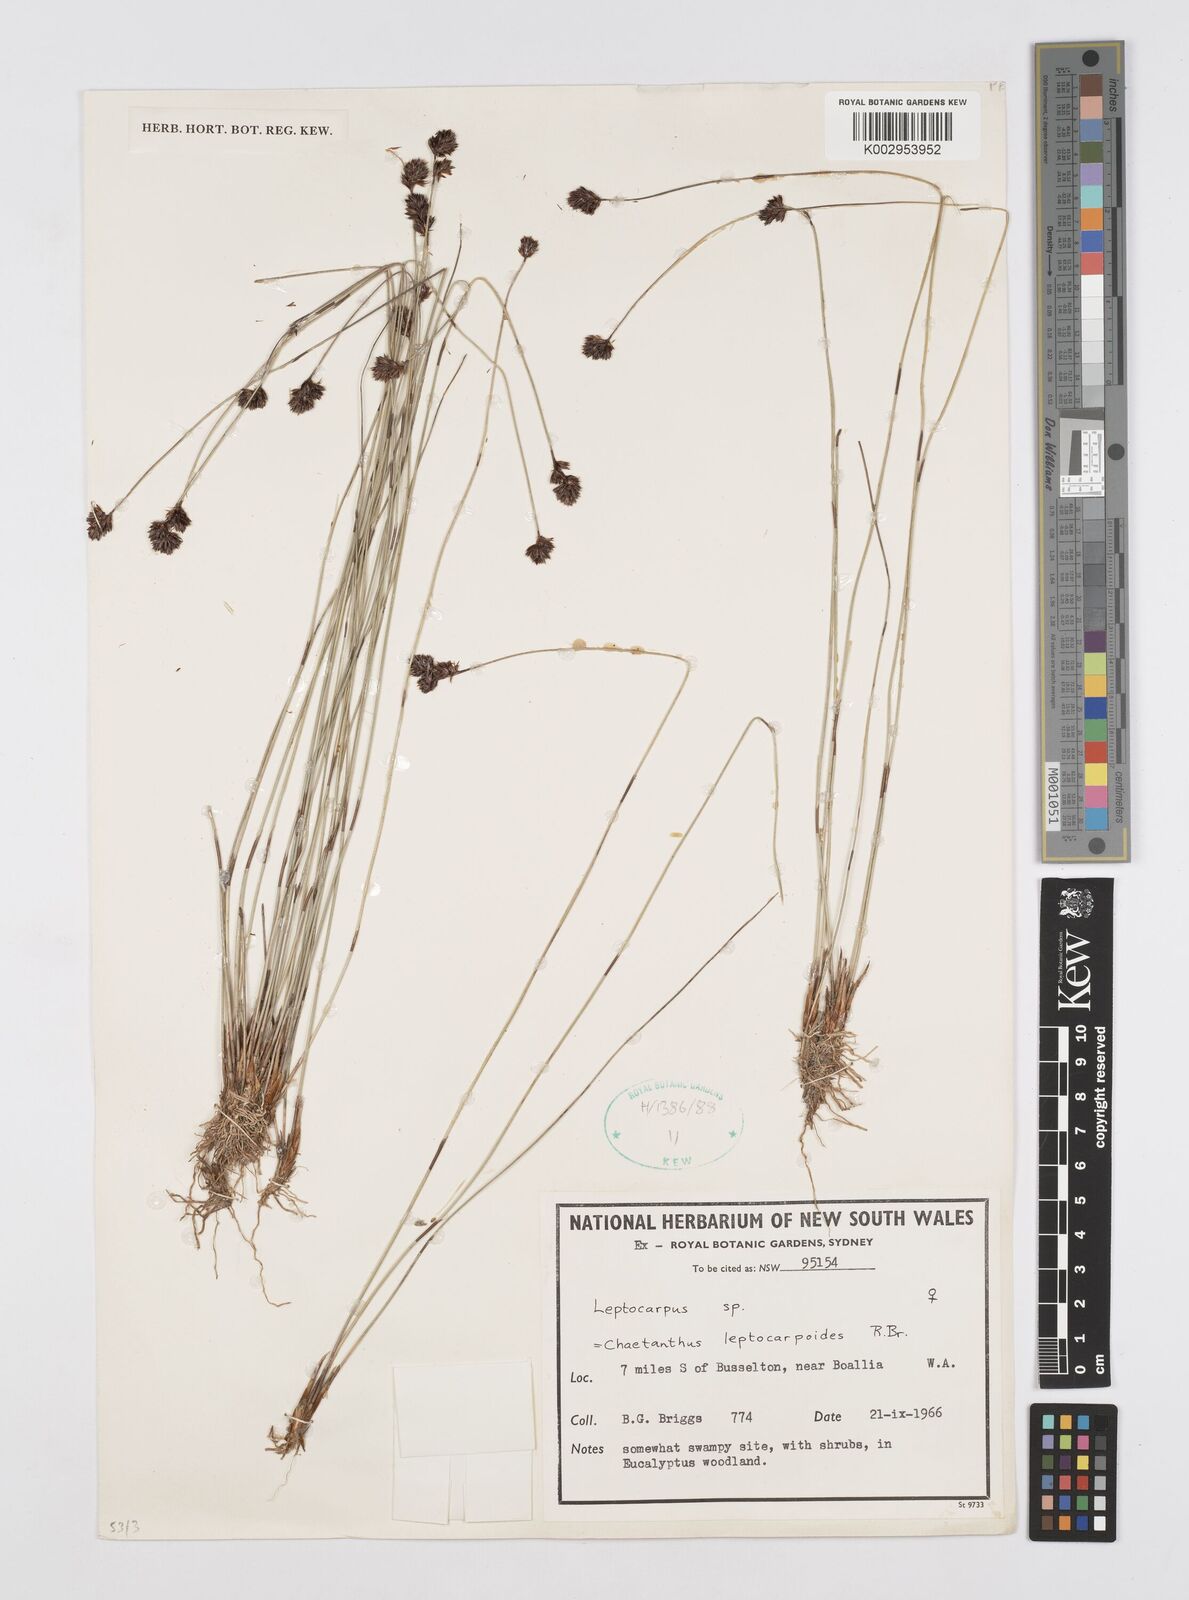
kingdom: Plantae
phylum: Tracheophyta
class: Liliopsida
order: Poales
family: Restionaceae
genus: Chaetanthus
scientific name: Chaetanthus leptocarpoides
